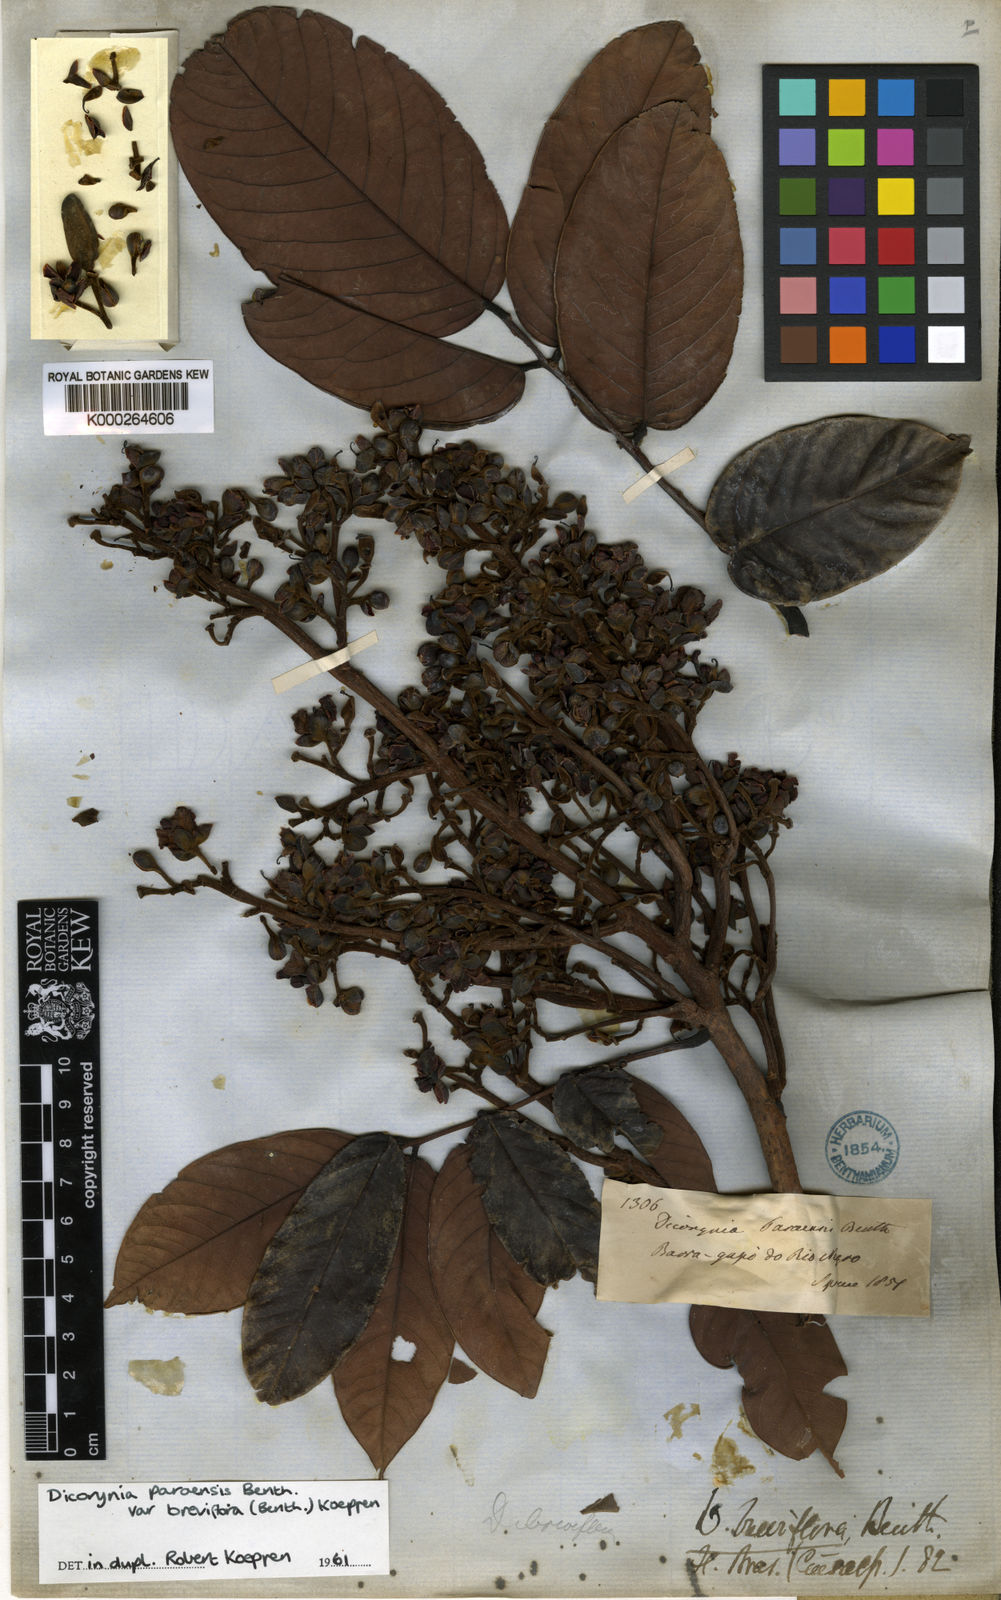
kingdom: Plantae
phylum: Tracheophyta
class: Magnoliopsida
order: Fabales
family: Fabaceae
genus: Dicorynia
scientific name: Dicorynia paraensis
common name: Angelique
